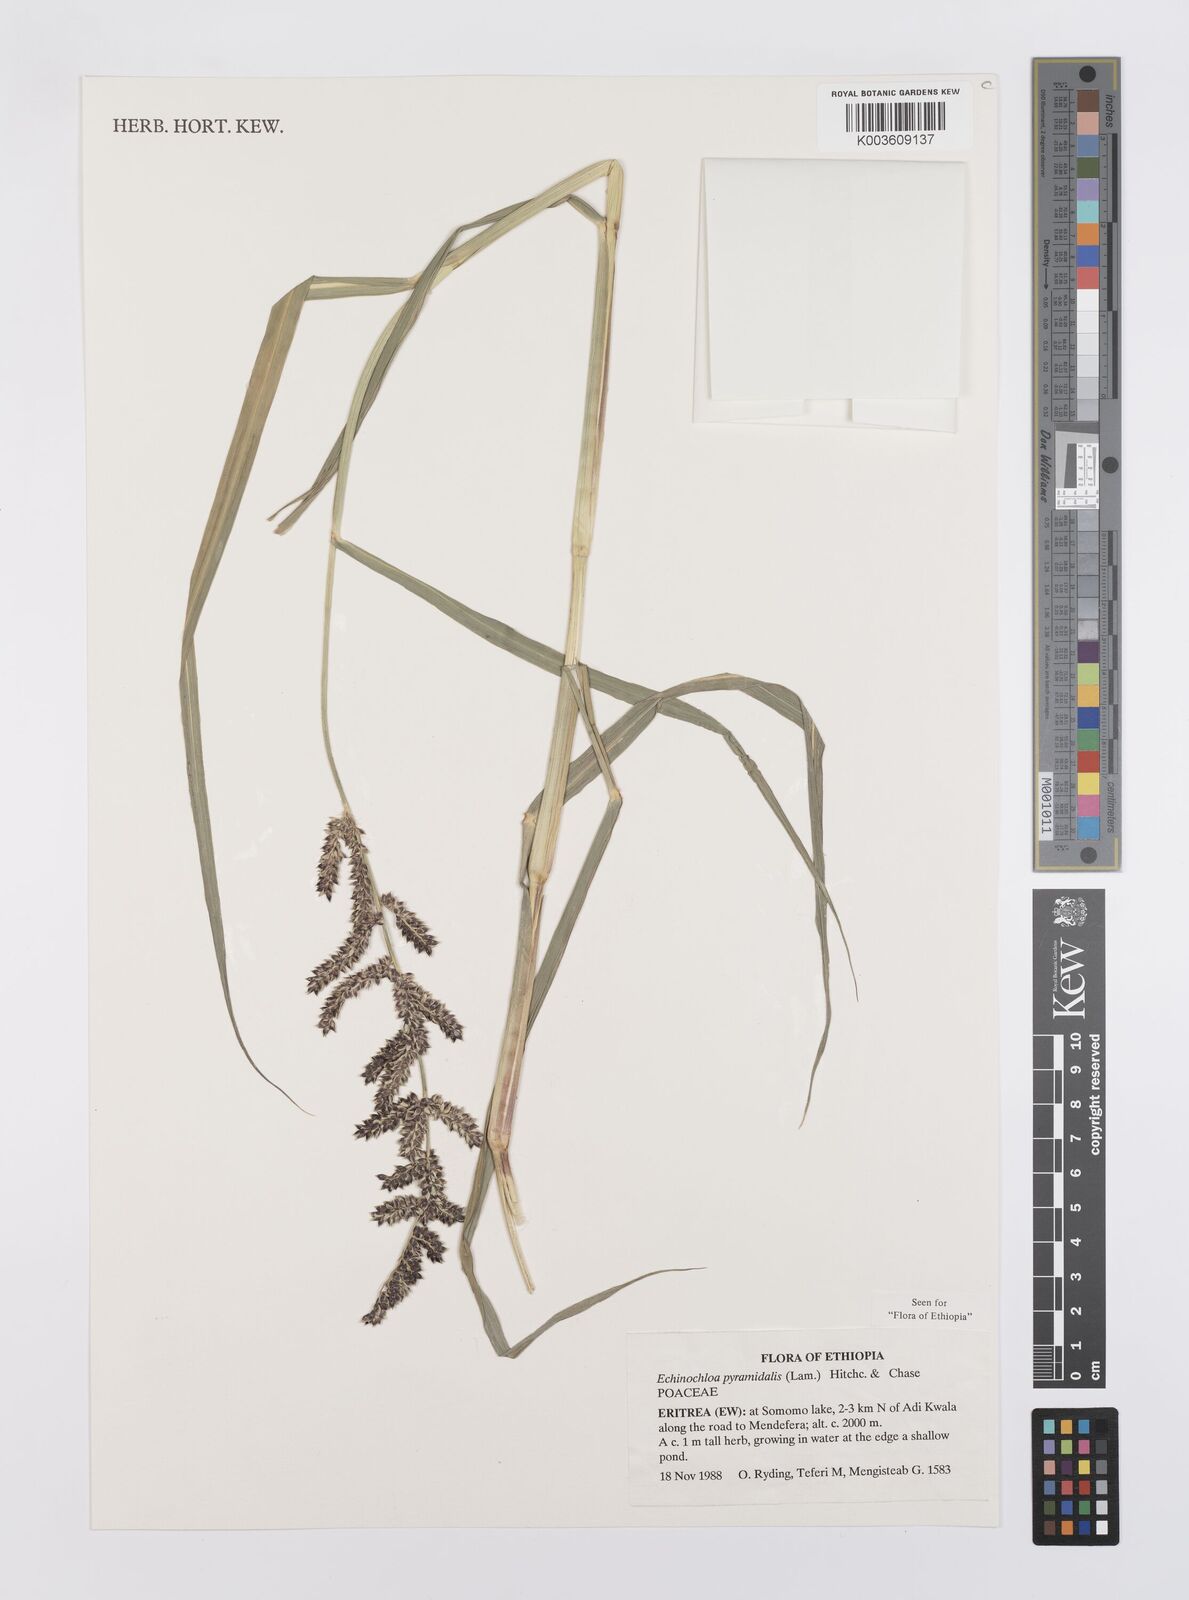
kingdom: Plantae
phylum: Tracheophyta
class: Liliopsida
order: Poales
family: Poaceae
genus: Echinochloa
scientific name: Echinochloa pyramidalis
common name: Antelope grass
